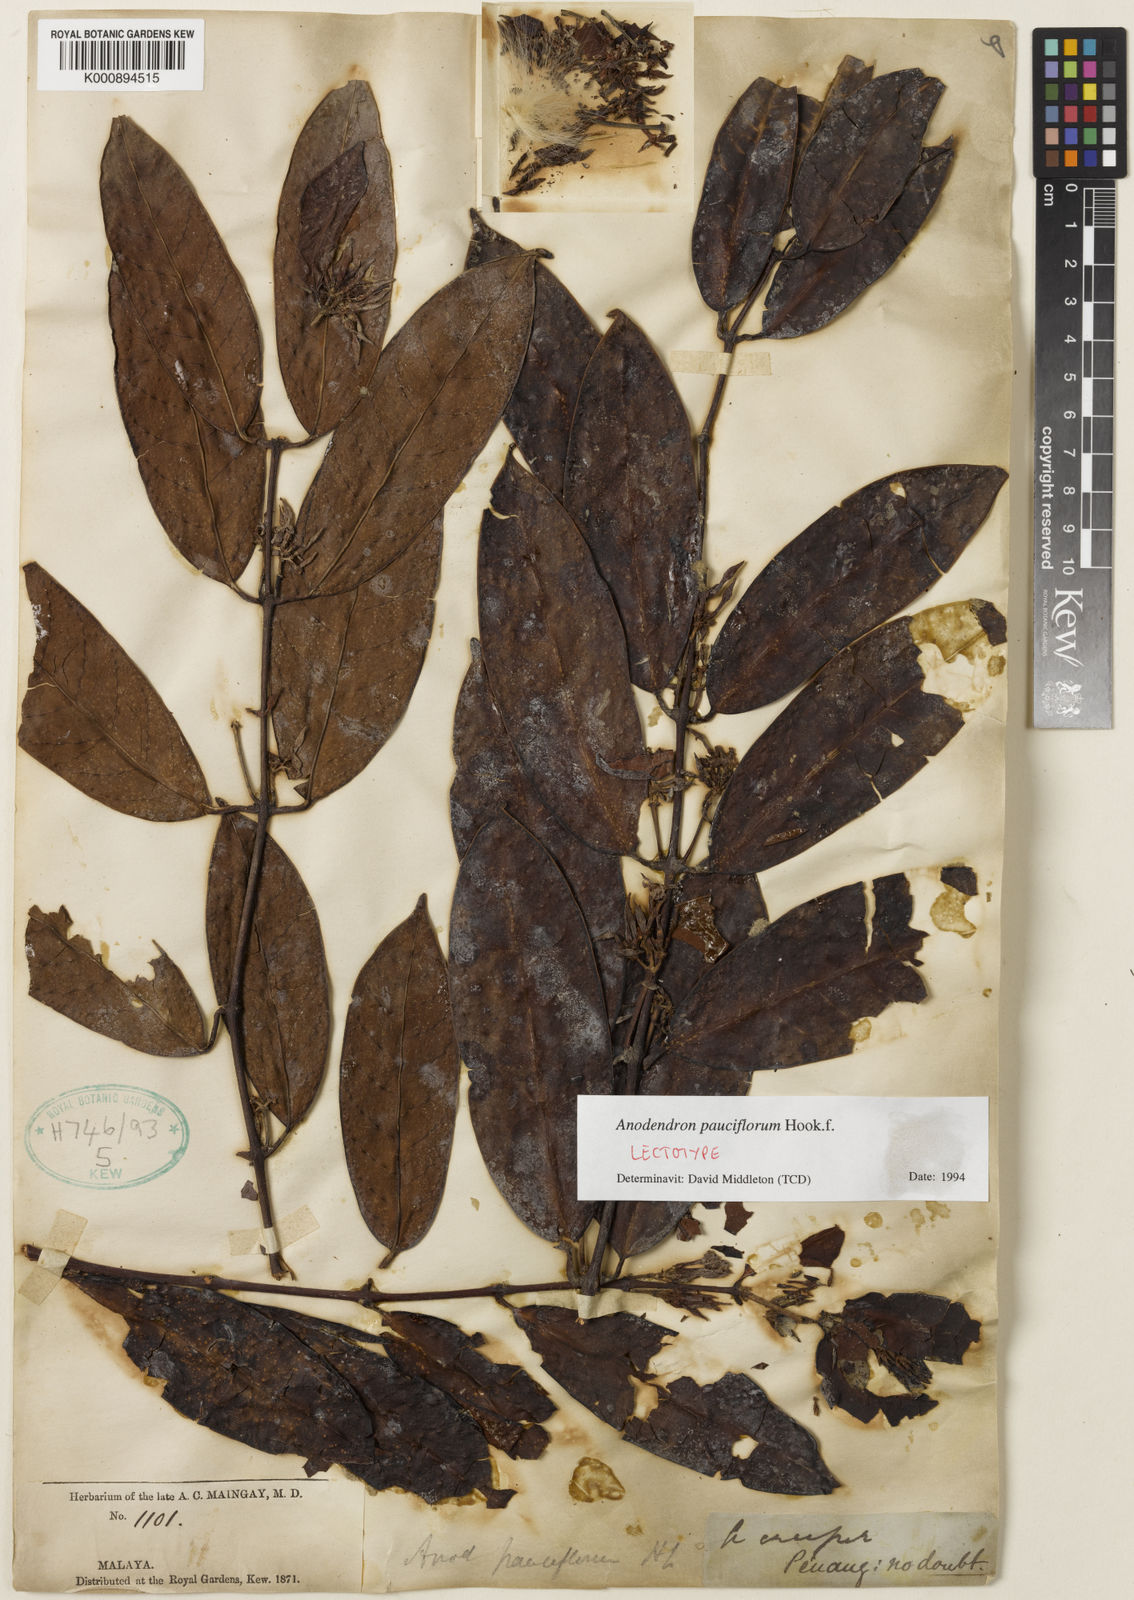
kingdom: Plantae
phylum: Tracheophyta
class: Magnoliopsida
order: Gentianales
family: Apocynaceae
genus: Anodendron
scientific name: Anodendron pauciflorum
